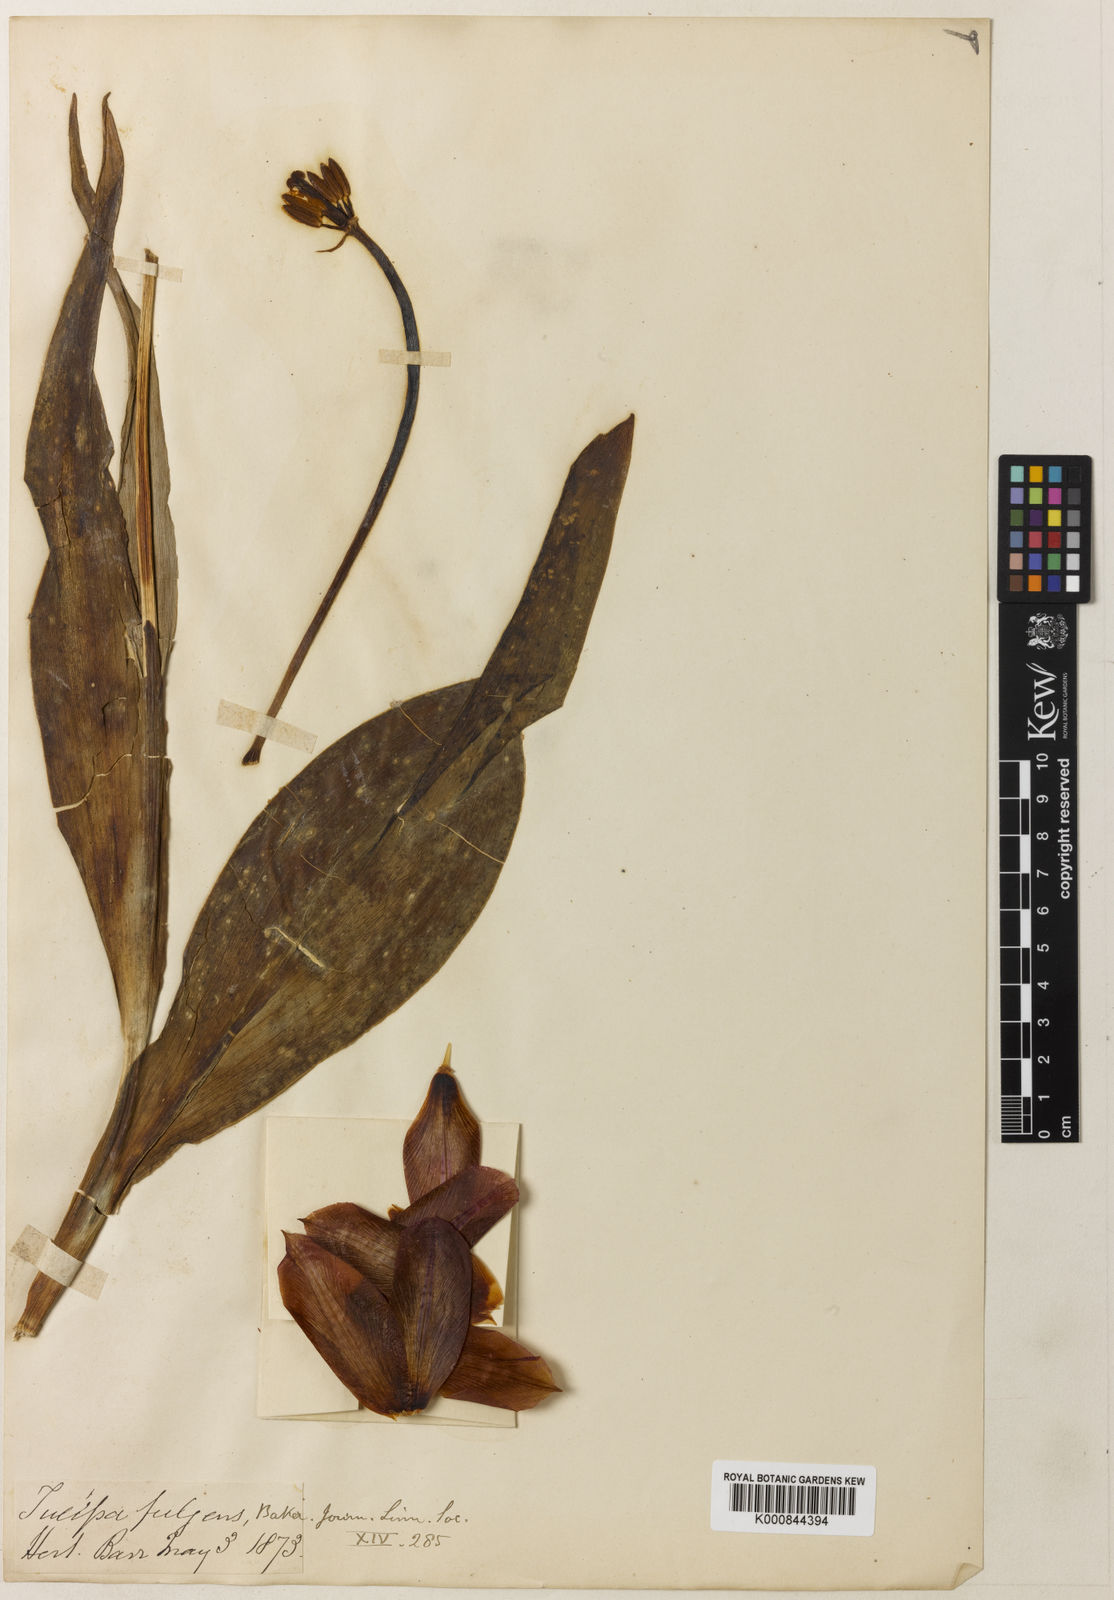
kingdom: Plantae
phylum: Tracheophyta
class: Liliopsida
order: Liliales
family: Liliaceae
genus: Tulipa
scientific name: Tulipa gesneriana
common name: Garden tulip
